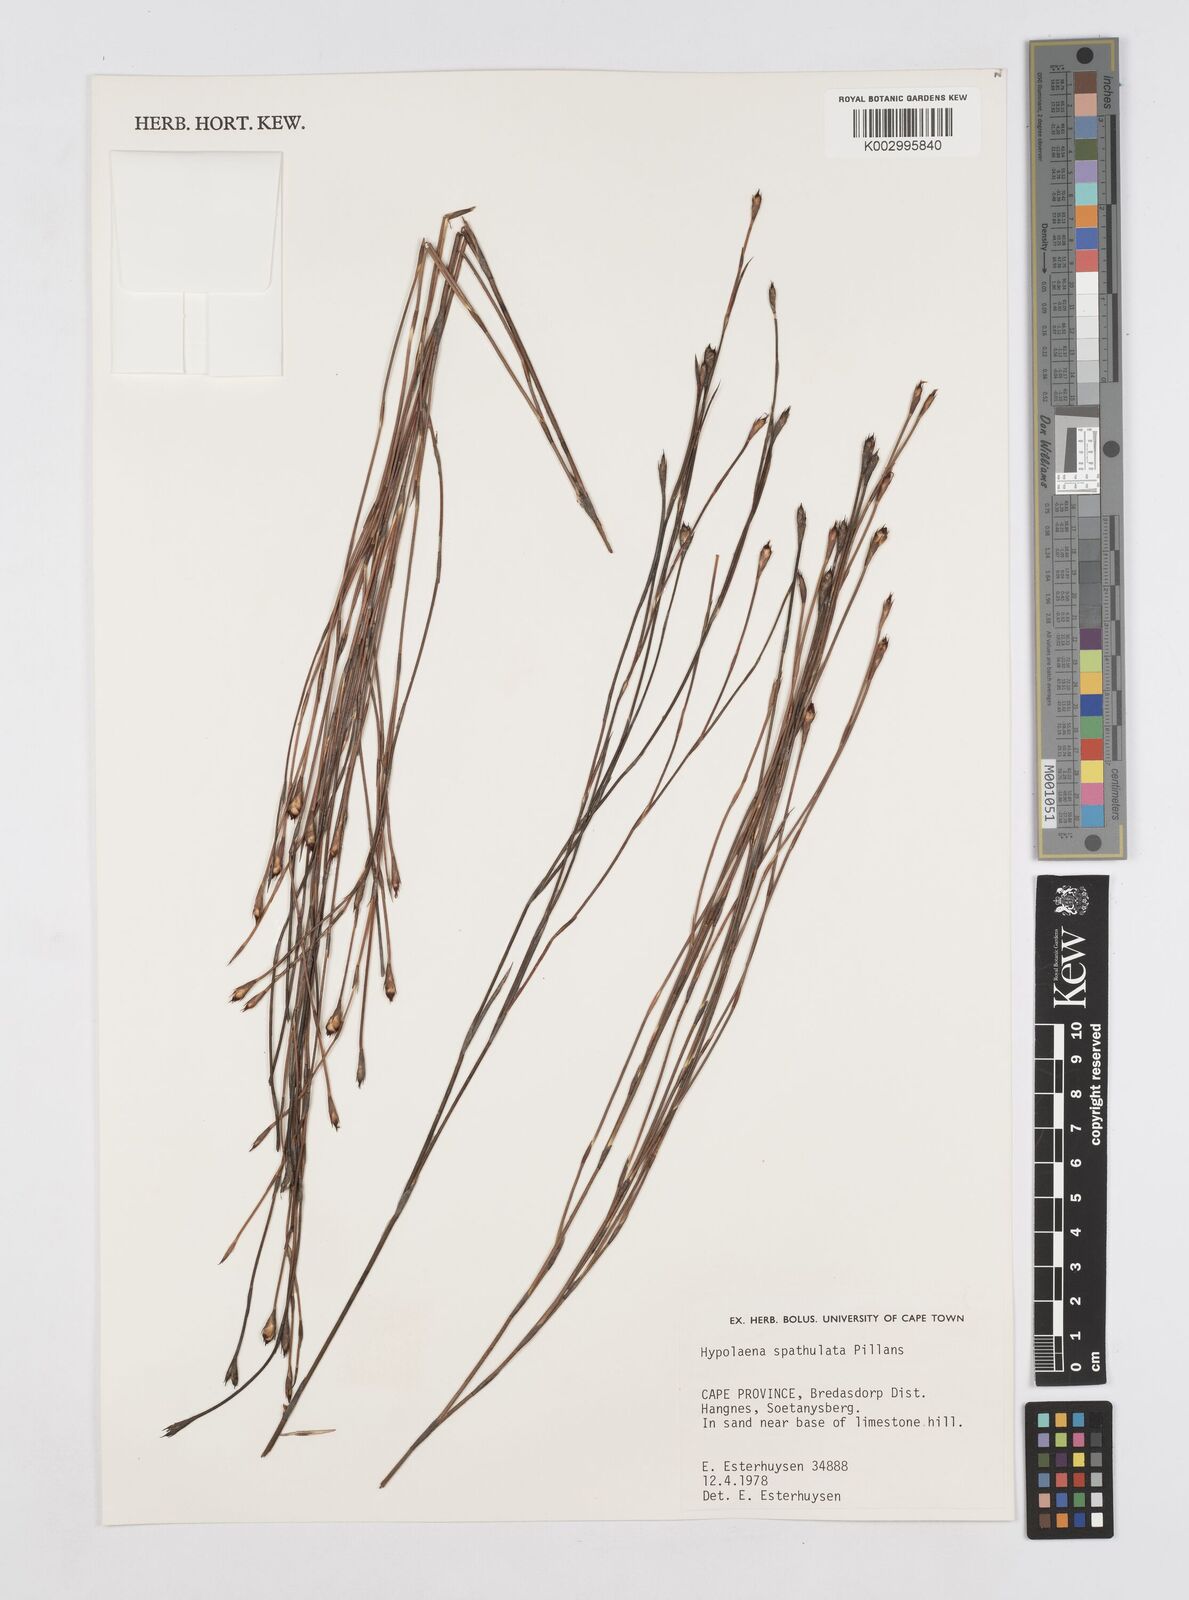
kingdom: Plantae
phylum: Tracheophyta
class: Liliopsida
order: Poales
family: Restionaceae
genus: Mastersiella
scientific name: Mastersiella spathulata
